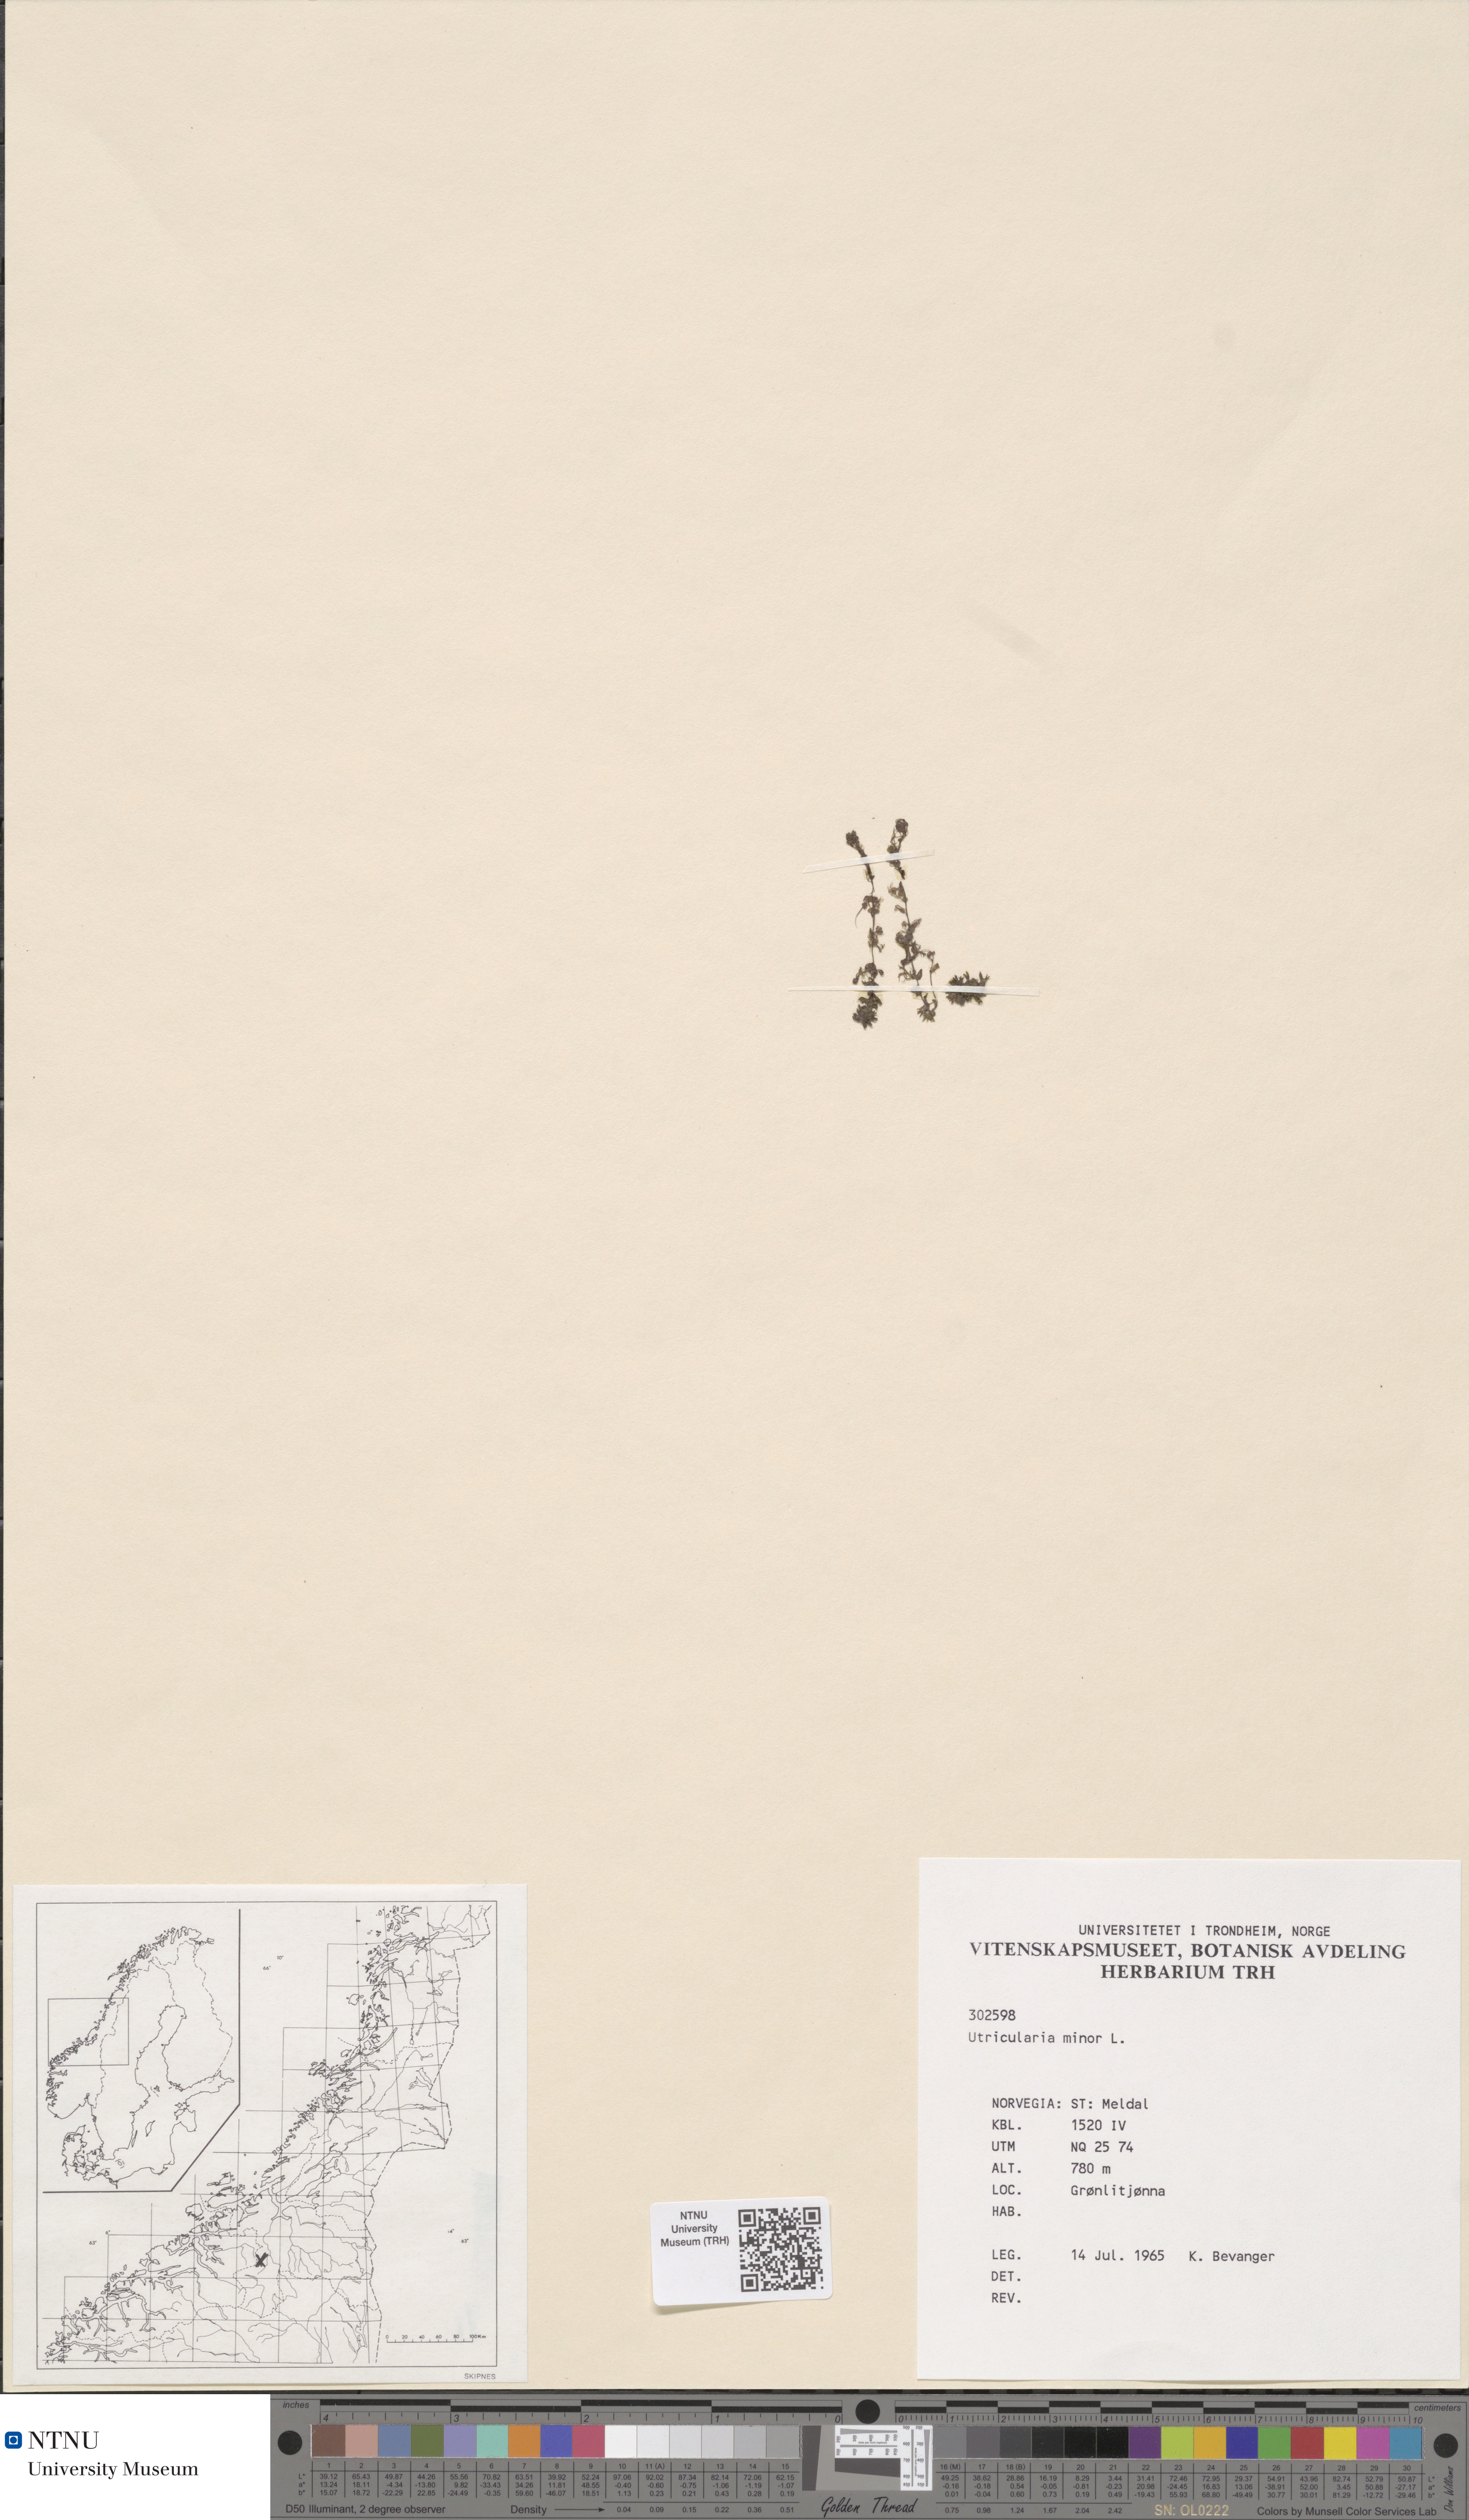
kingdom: Plantae
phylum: Tracheophyta
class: Magnoliopsida
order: Lamiales
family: Lentibulariaceae
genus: Utricularia
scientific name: Utricularia minor
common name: Lesser bladderwort
